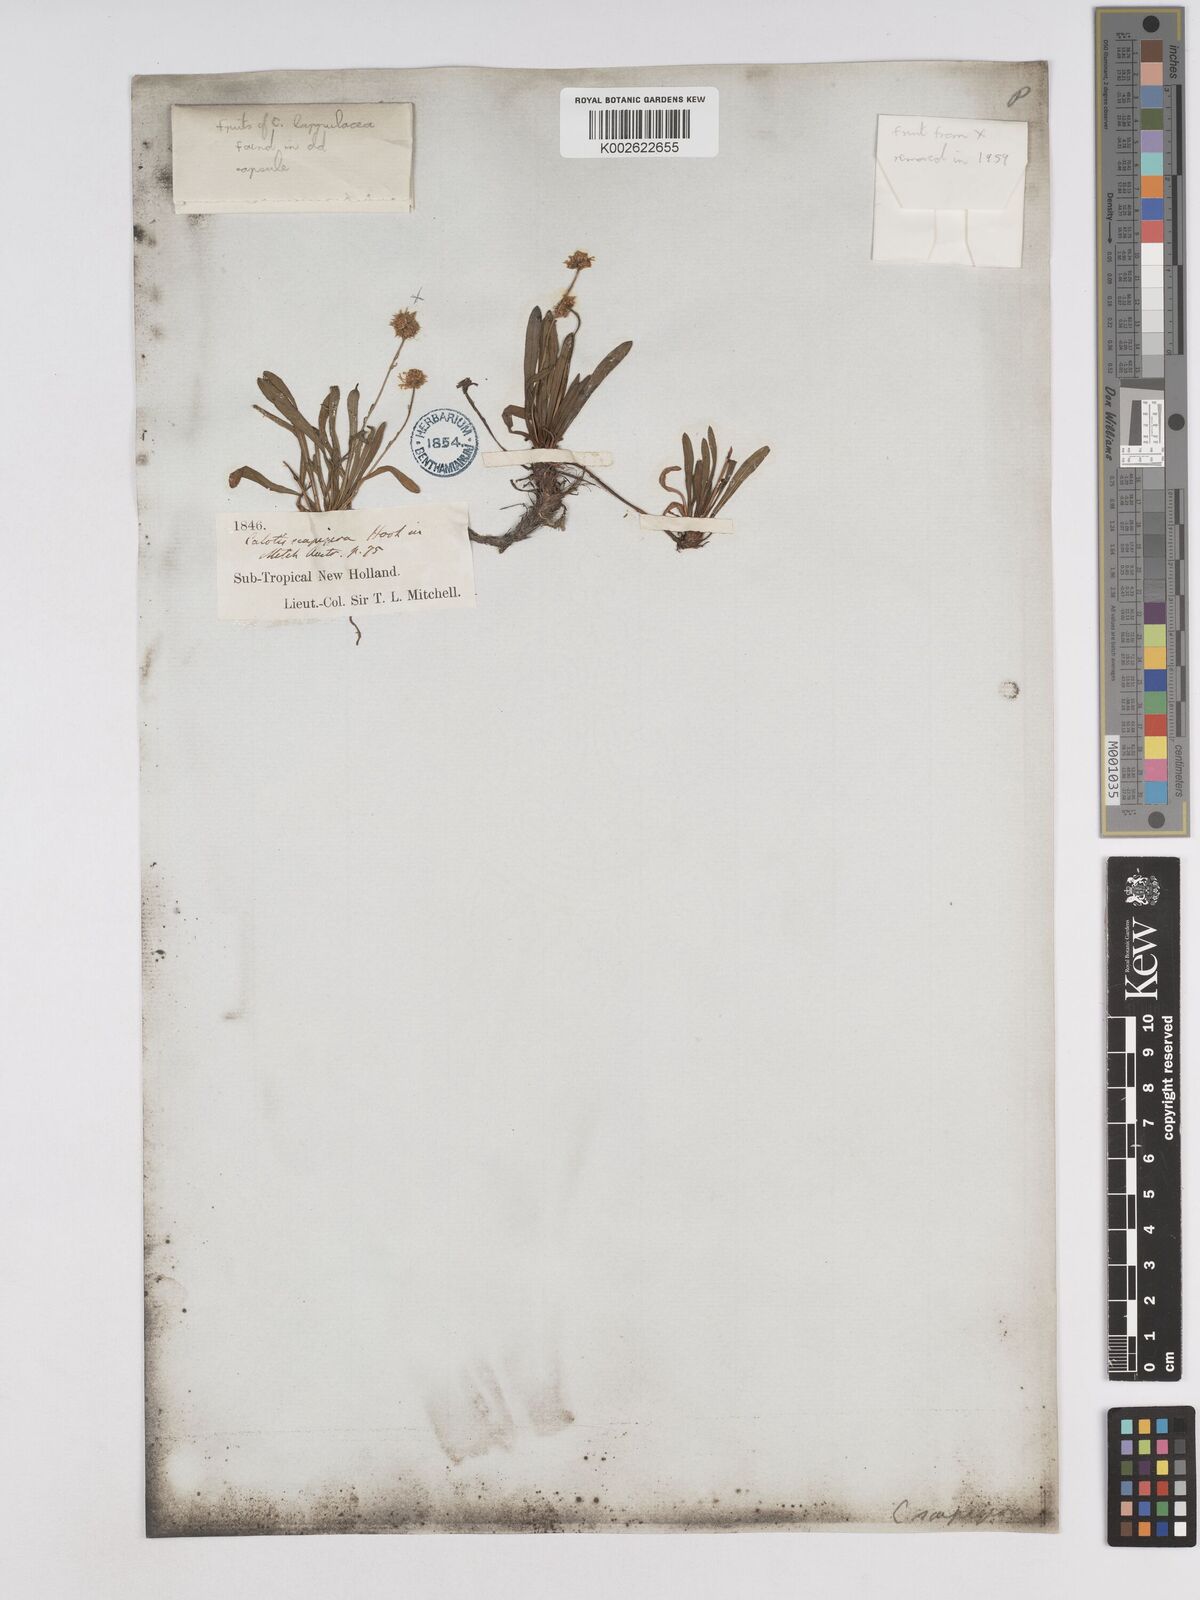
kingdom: Plantae
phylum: Tracheophyta
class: Magnoliopsida
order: Asterales
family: Asteraceae
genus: Calotis
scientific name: Calotis scapigera
